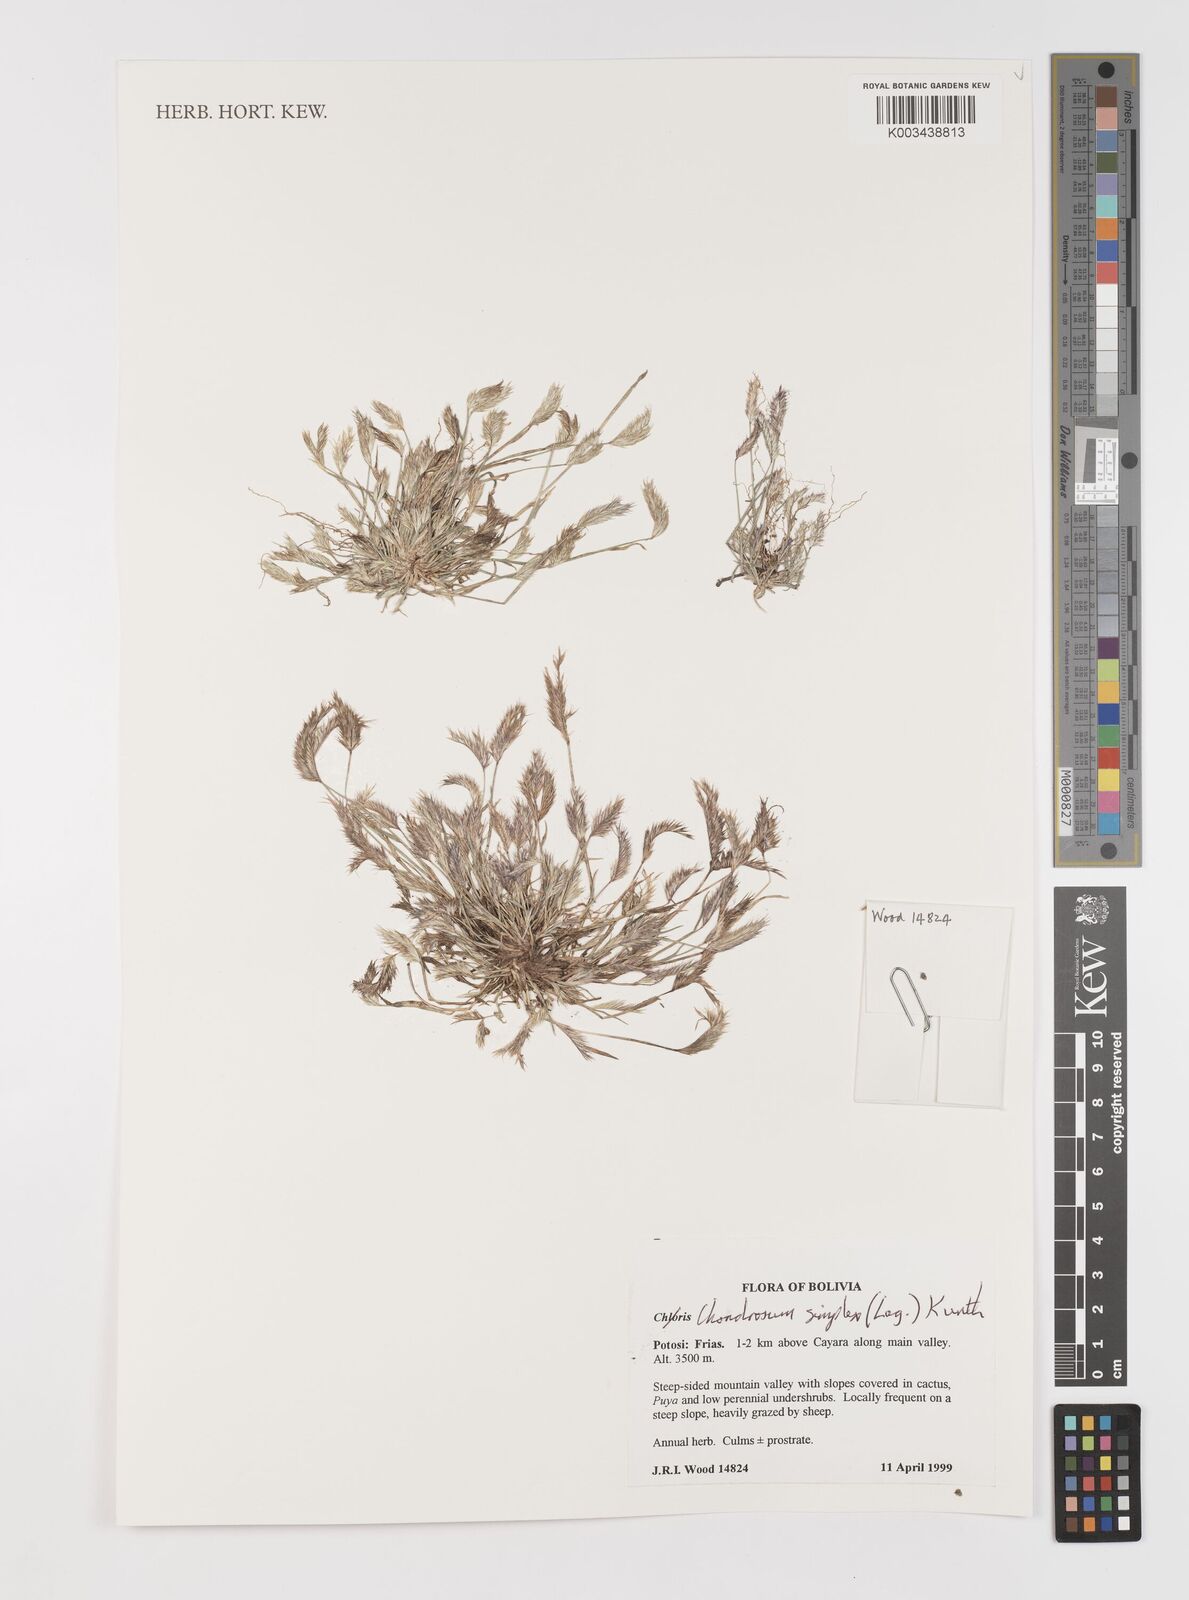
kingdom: Plantae
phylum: Tracheophyta
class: Liliopsida
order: Poales
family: Poaceae
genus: Bouteloua
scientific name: Bouteloua simplex
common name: Mat grama
